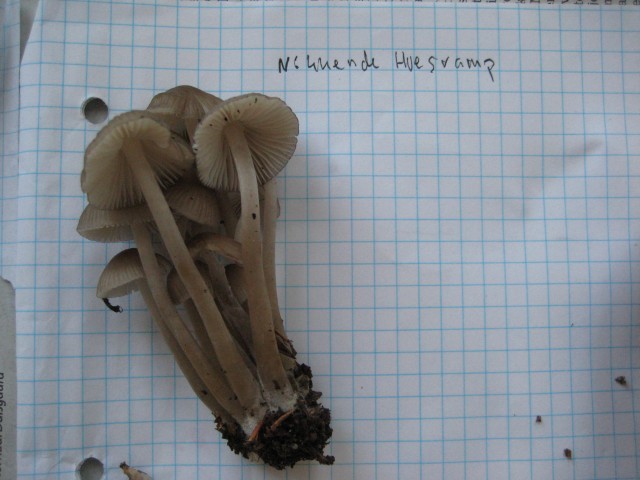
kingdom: Fungi
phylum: Basidiomycota
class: Agaricomycetes
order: Agaricales
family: Mycenaceae
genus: Mycena
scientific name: Mycena inclinata
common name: nikkende huesvamp
